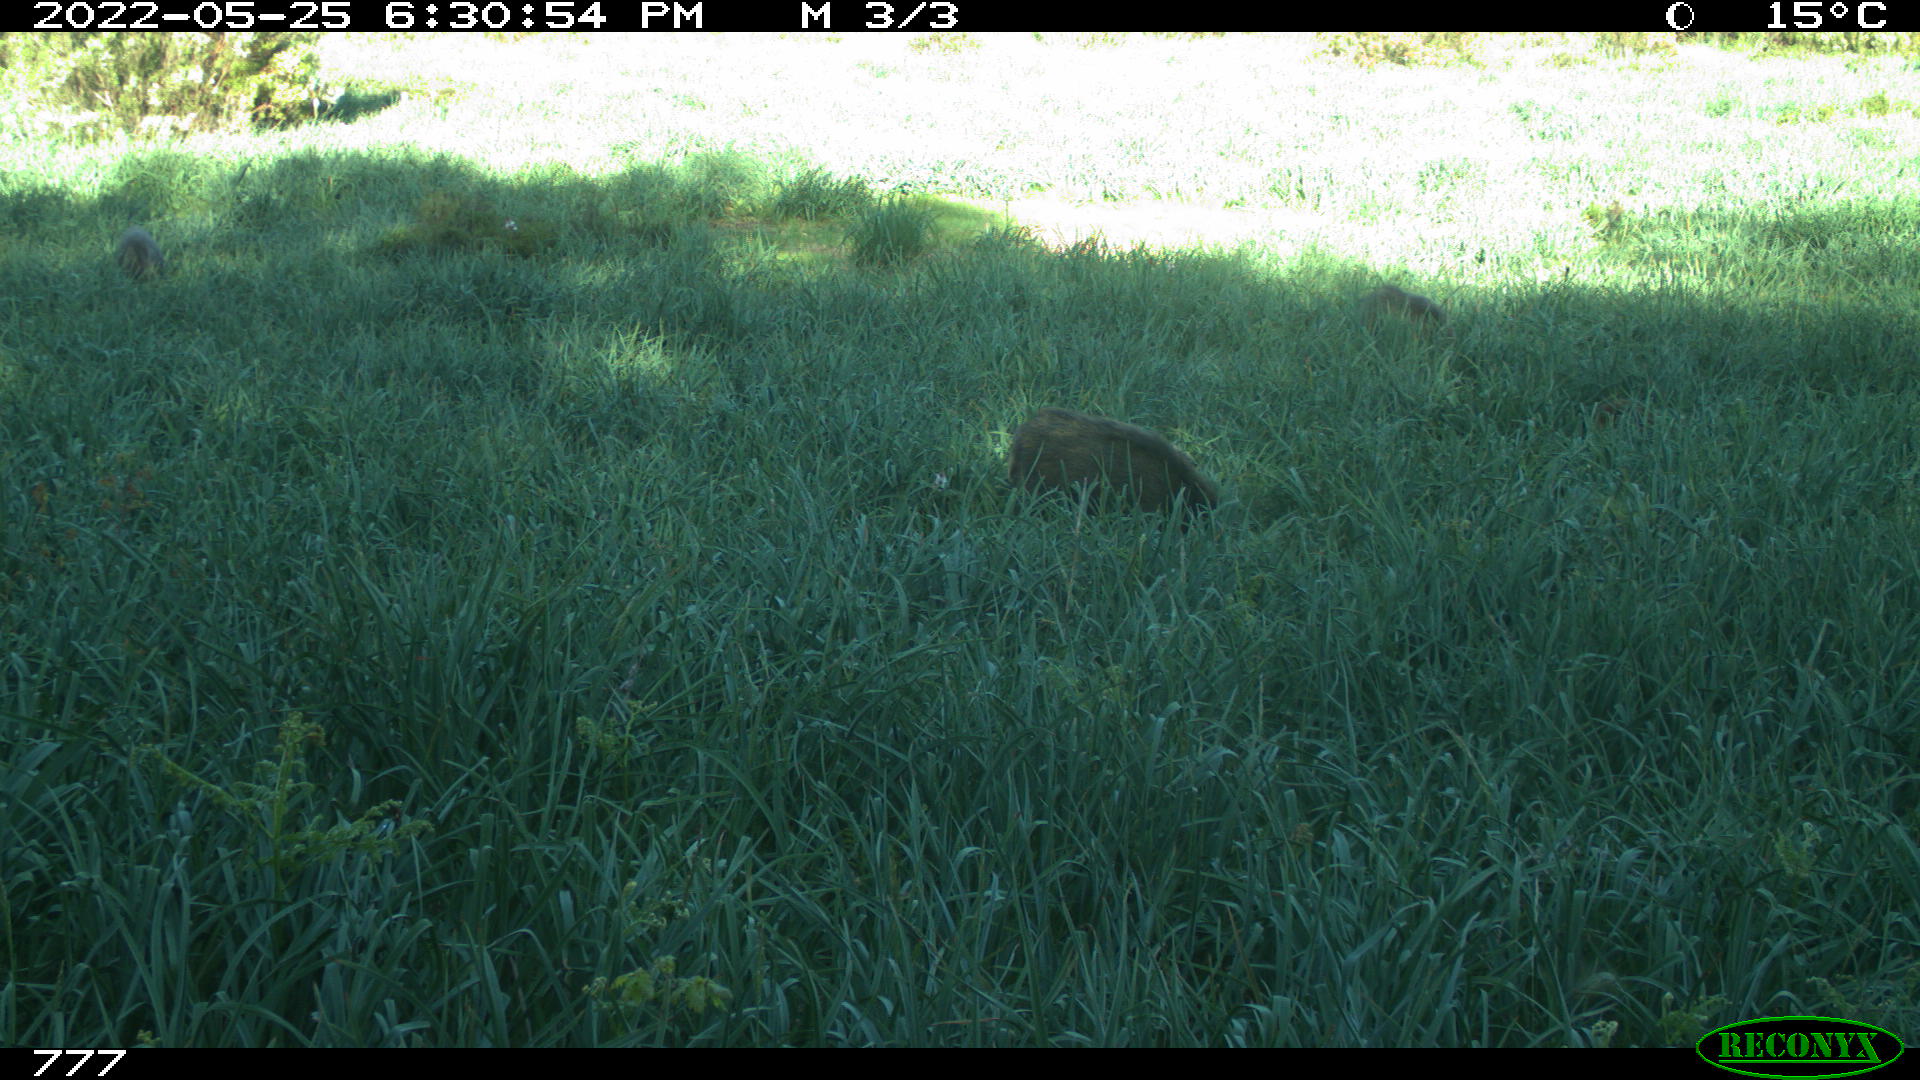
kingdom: Animalia
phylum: Chordata
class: Mammalia
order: Artiodactyla
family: Suidae
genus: Sus
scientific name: Sus scrofa
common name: Wild boar
